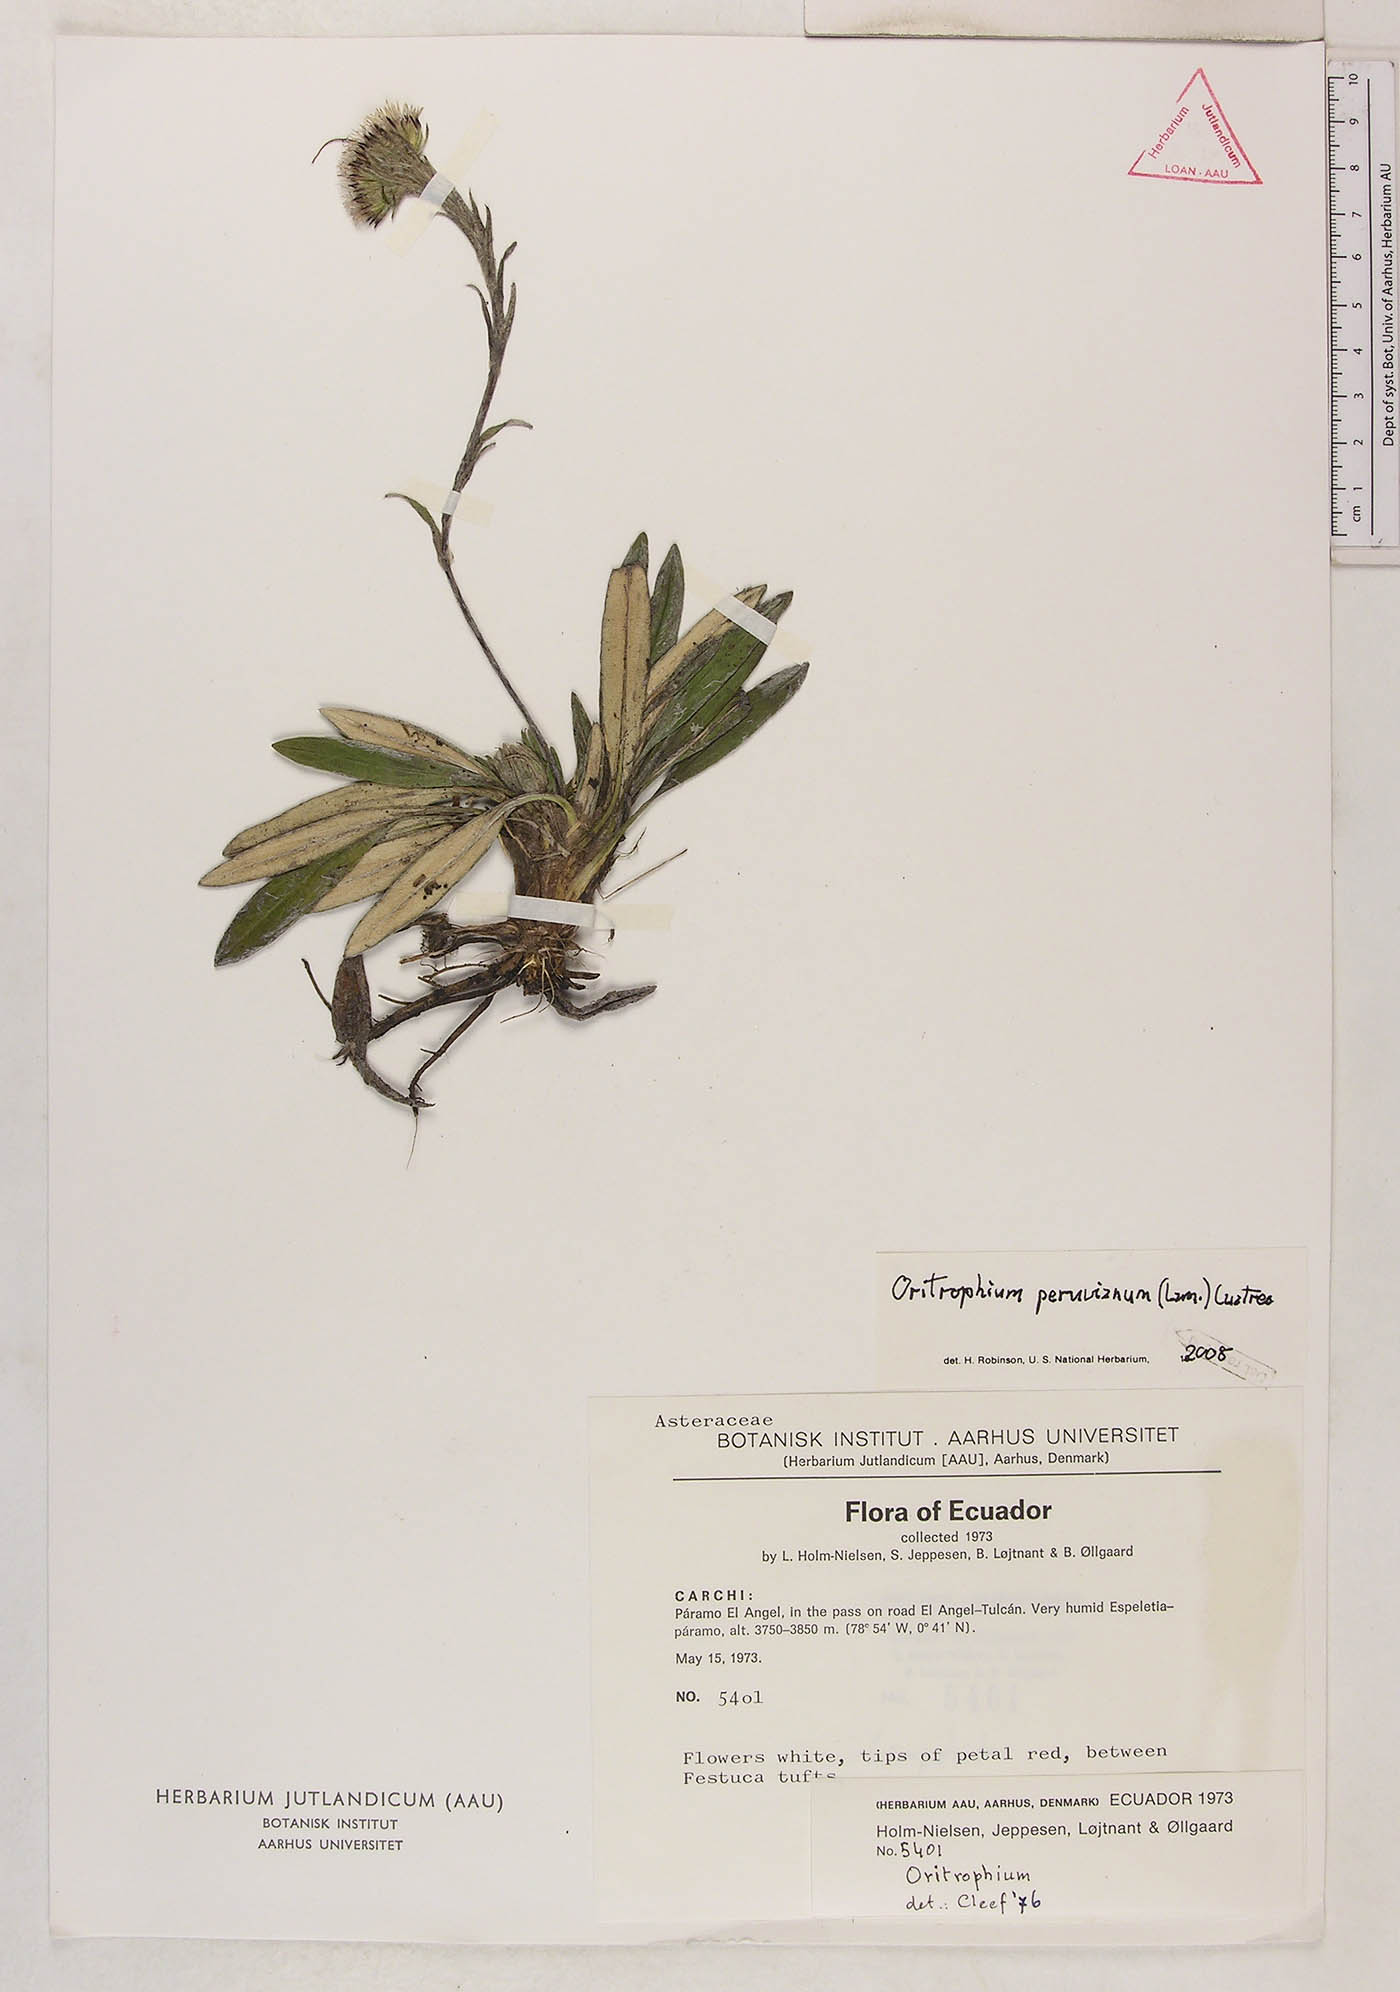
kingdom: Plantae
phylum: Tracheophyta
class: Magnoliopsida
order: Asterales
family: Asteraceae
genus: Oritrophium
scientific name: Oritrophium peruvianum
